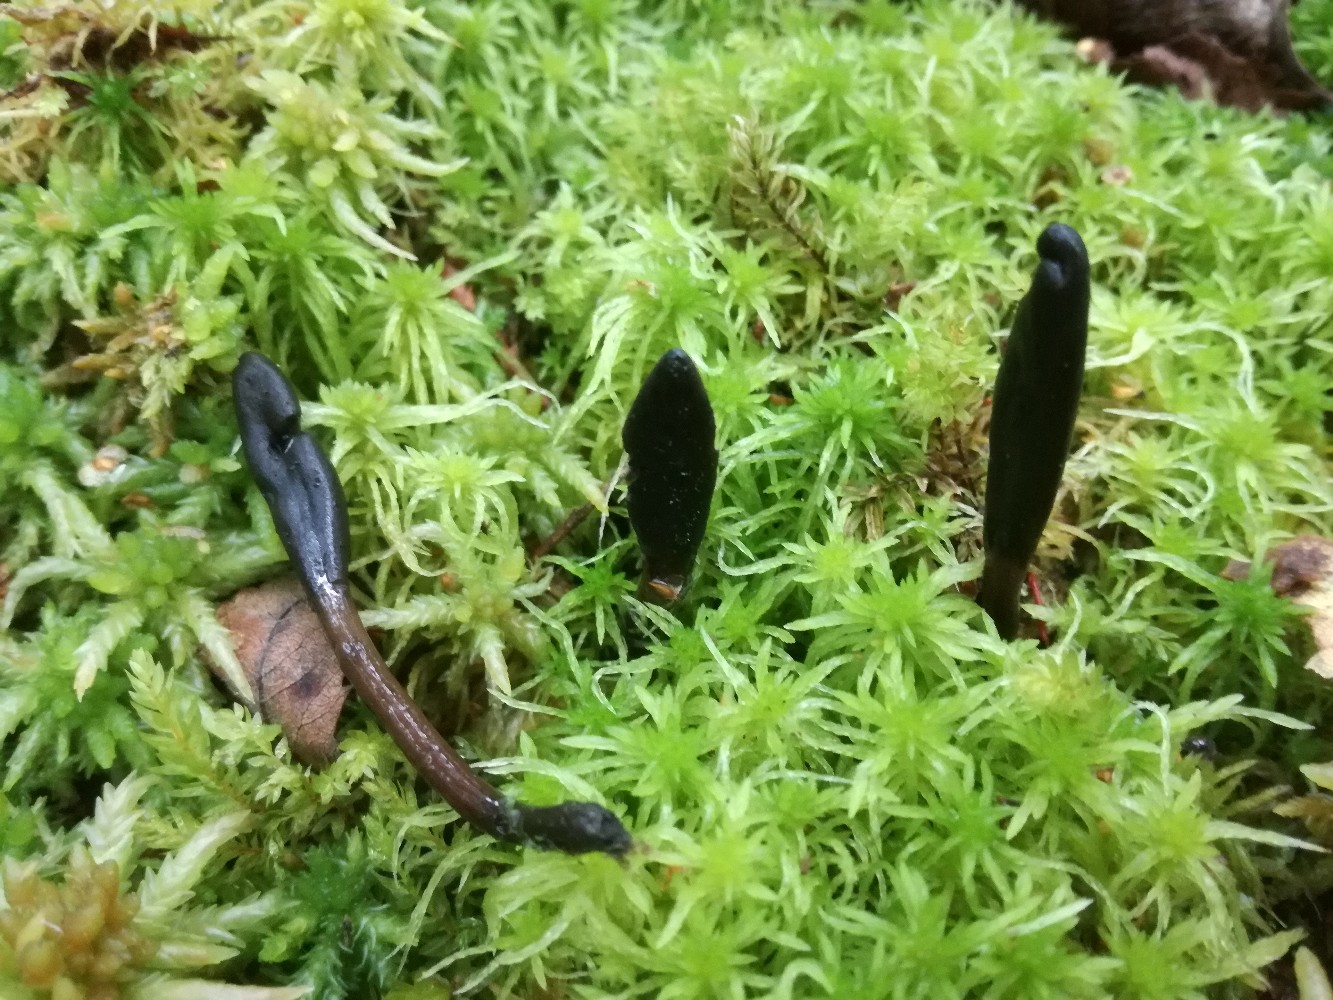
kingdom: Fungi
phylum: Ascomycota
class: Geoglossomycetes
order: Geoglossales
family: Geoglossaceae
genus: Glutinoglossum
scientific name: Glutinoglossum heptaseptatum
